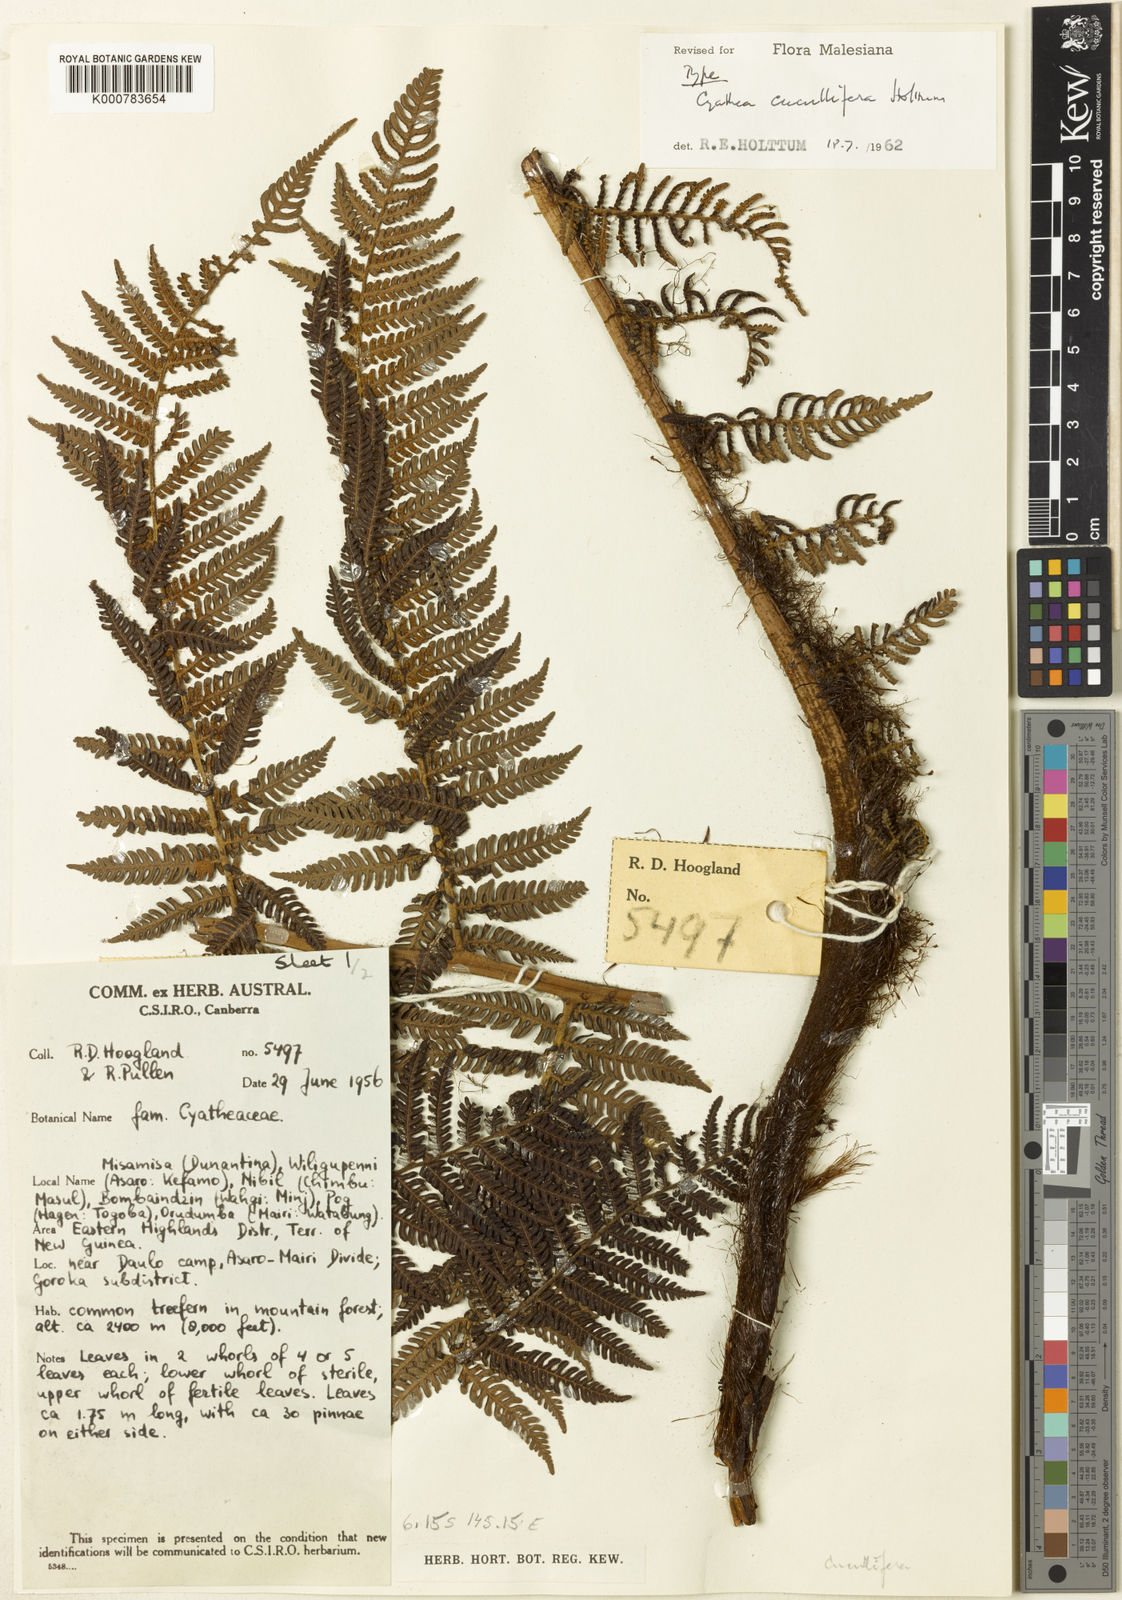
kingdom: Plantae
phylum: Tracheophyta
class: Polypodiopsida
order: Cyatheales
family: Cyatheaceae
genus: Alsophila
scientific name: Alsophila cucullifera
